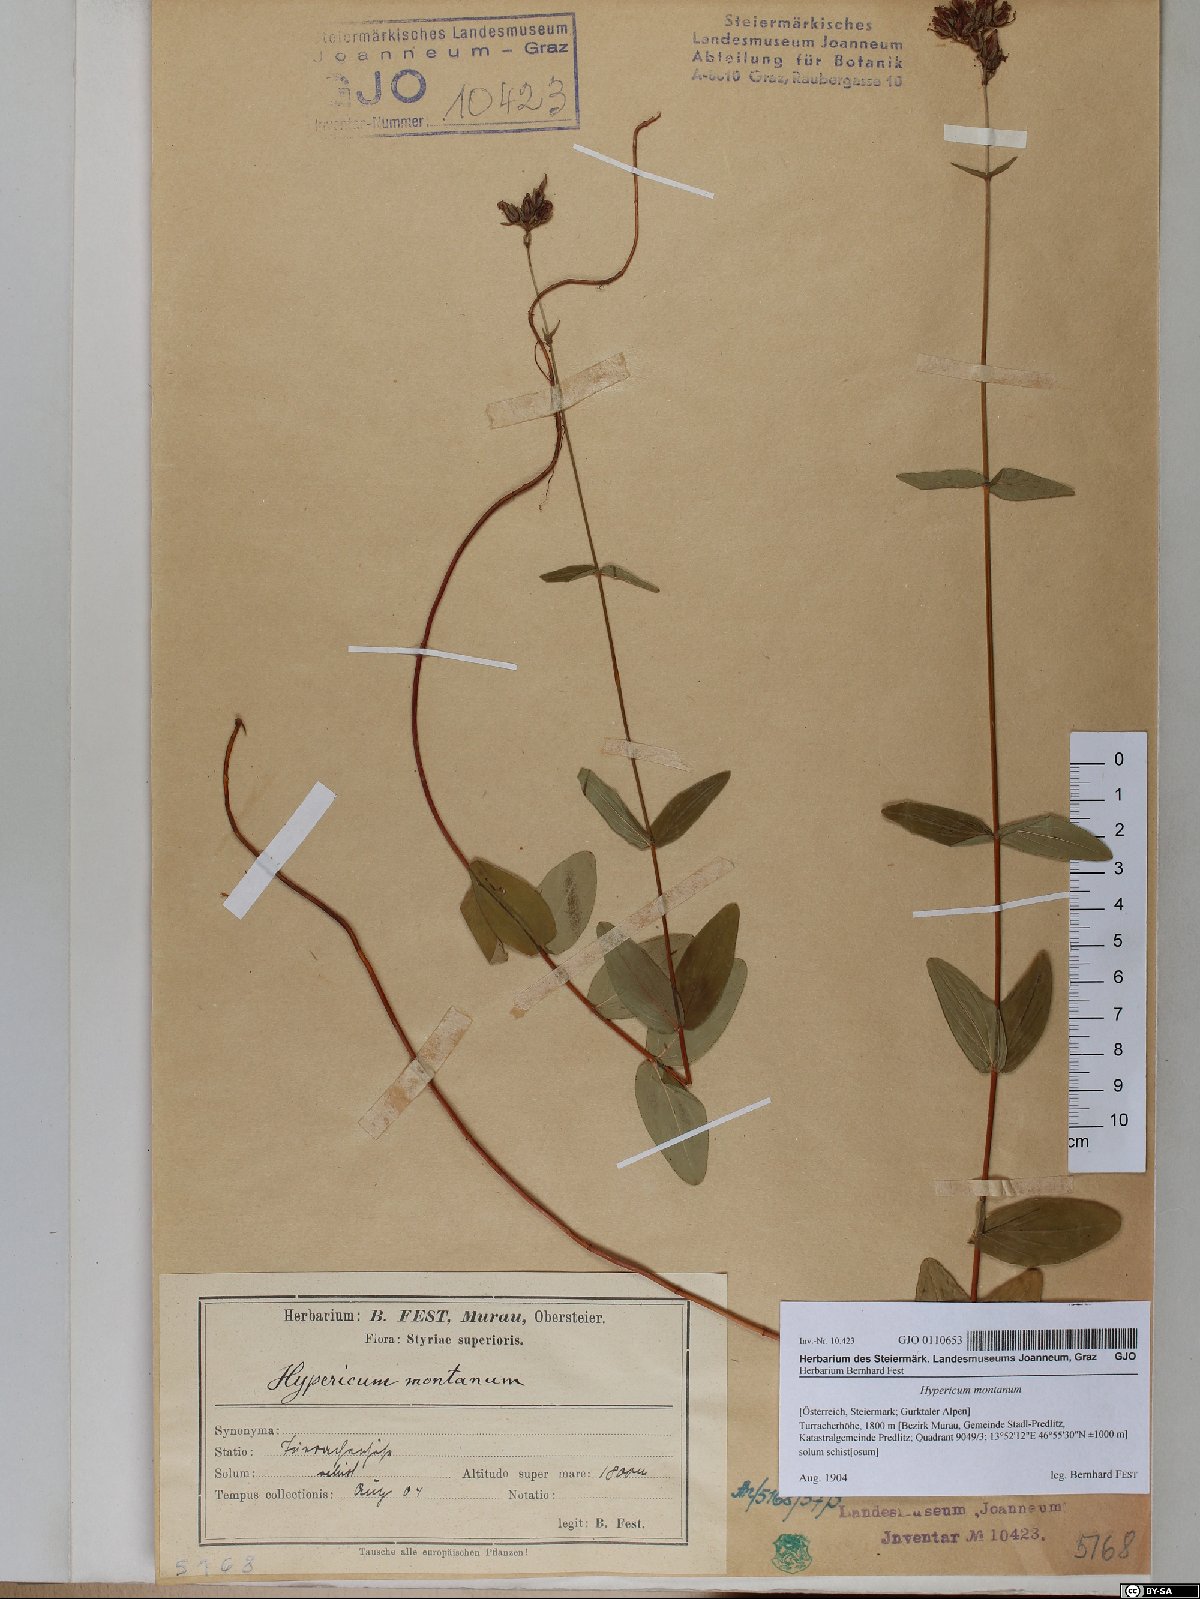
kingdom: Plantae
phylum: Tracheophyta
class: Magnoliopsida
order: Malpighiales
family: Hypericaceae
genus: Hypericum
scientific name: Hypericum montanum
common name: Pale st. john's-wort
